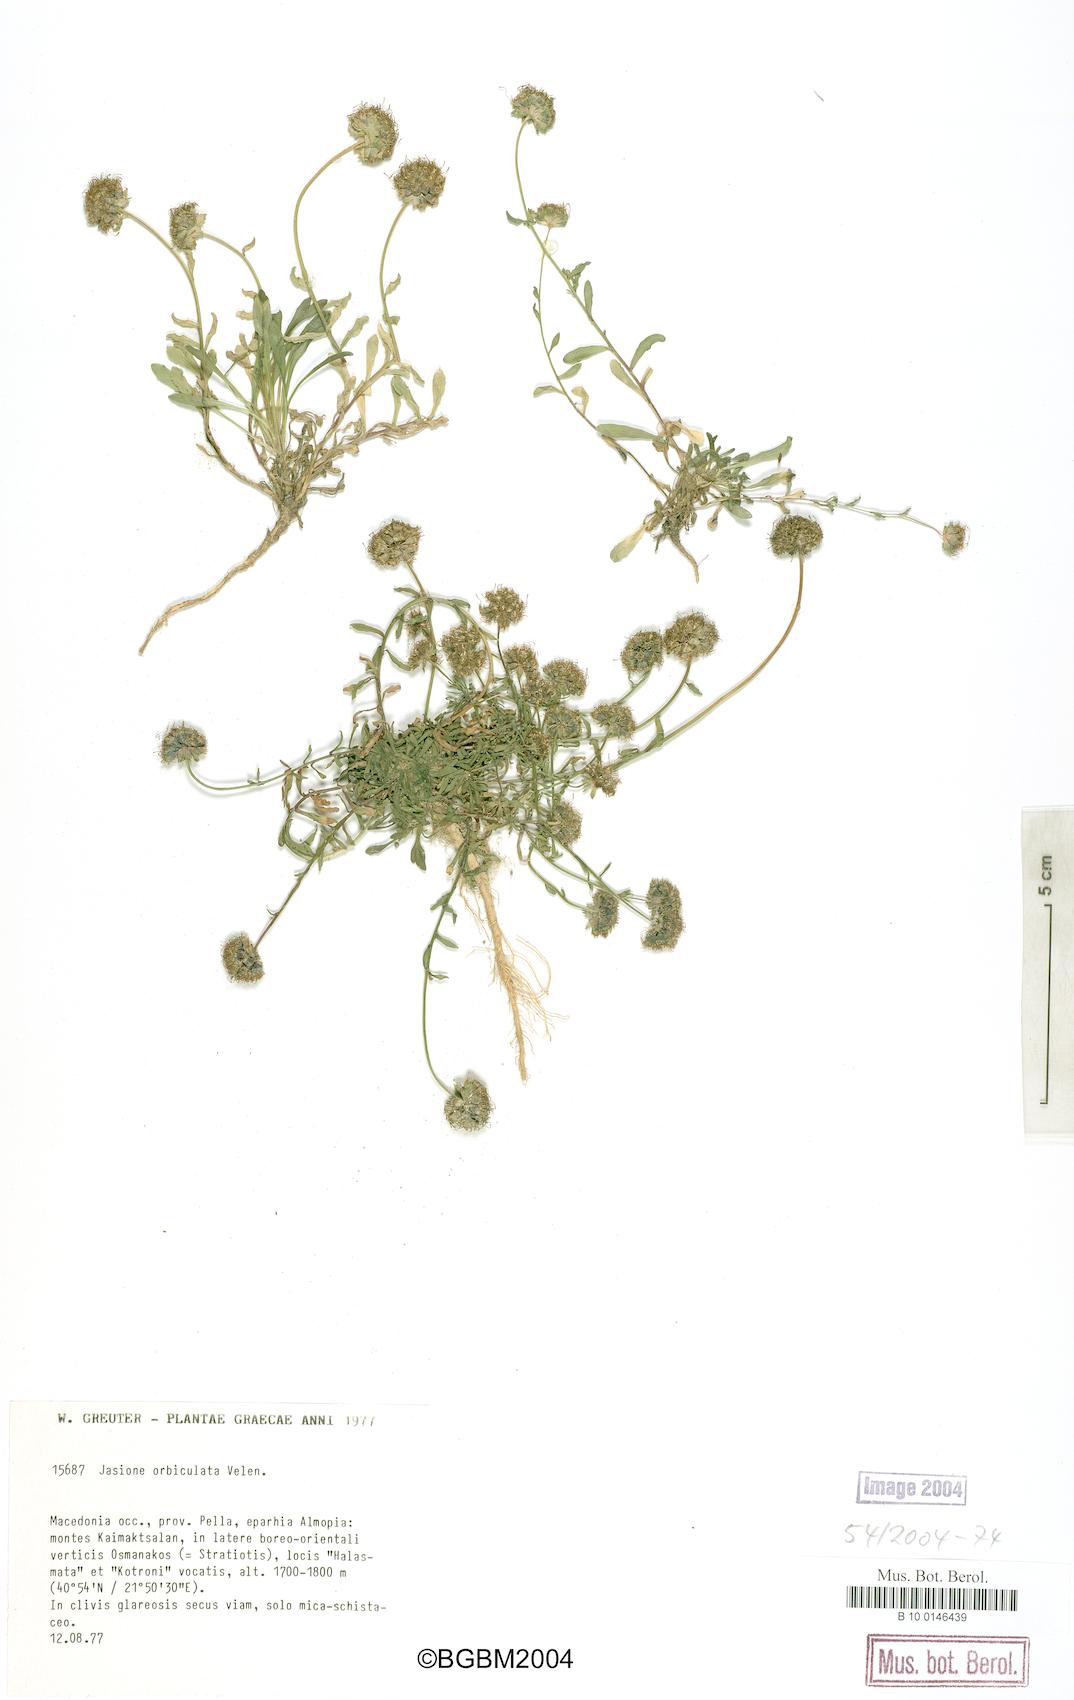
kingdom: Plantae
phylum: Tracheophyta
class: Magnoliopsida
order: Asterales
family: Campanulaceae
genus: Jasione
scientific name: Jasione orbiculata
